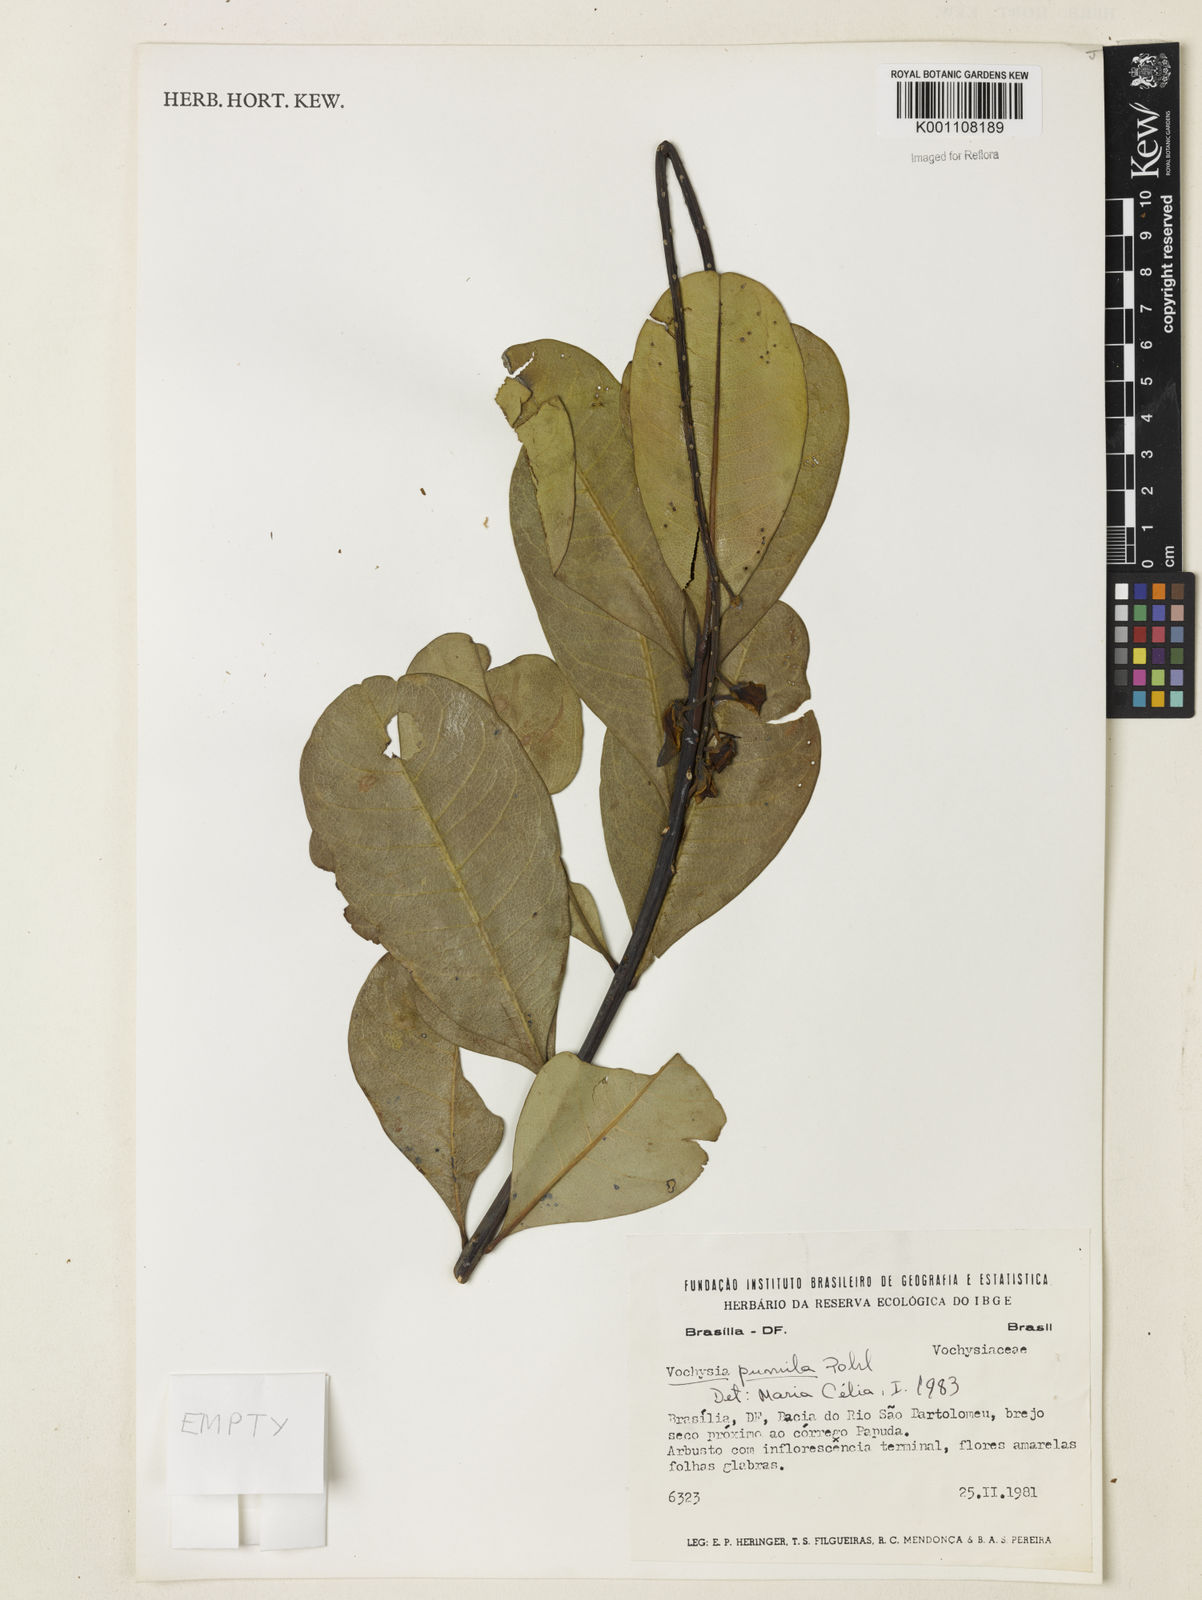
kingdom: Plantae
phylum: Tracheophyta
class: Magnoliopsida
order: Myrtales
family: Vochysiaceae
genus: Vochysia
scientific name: Vochysia pumila
